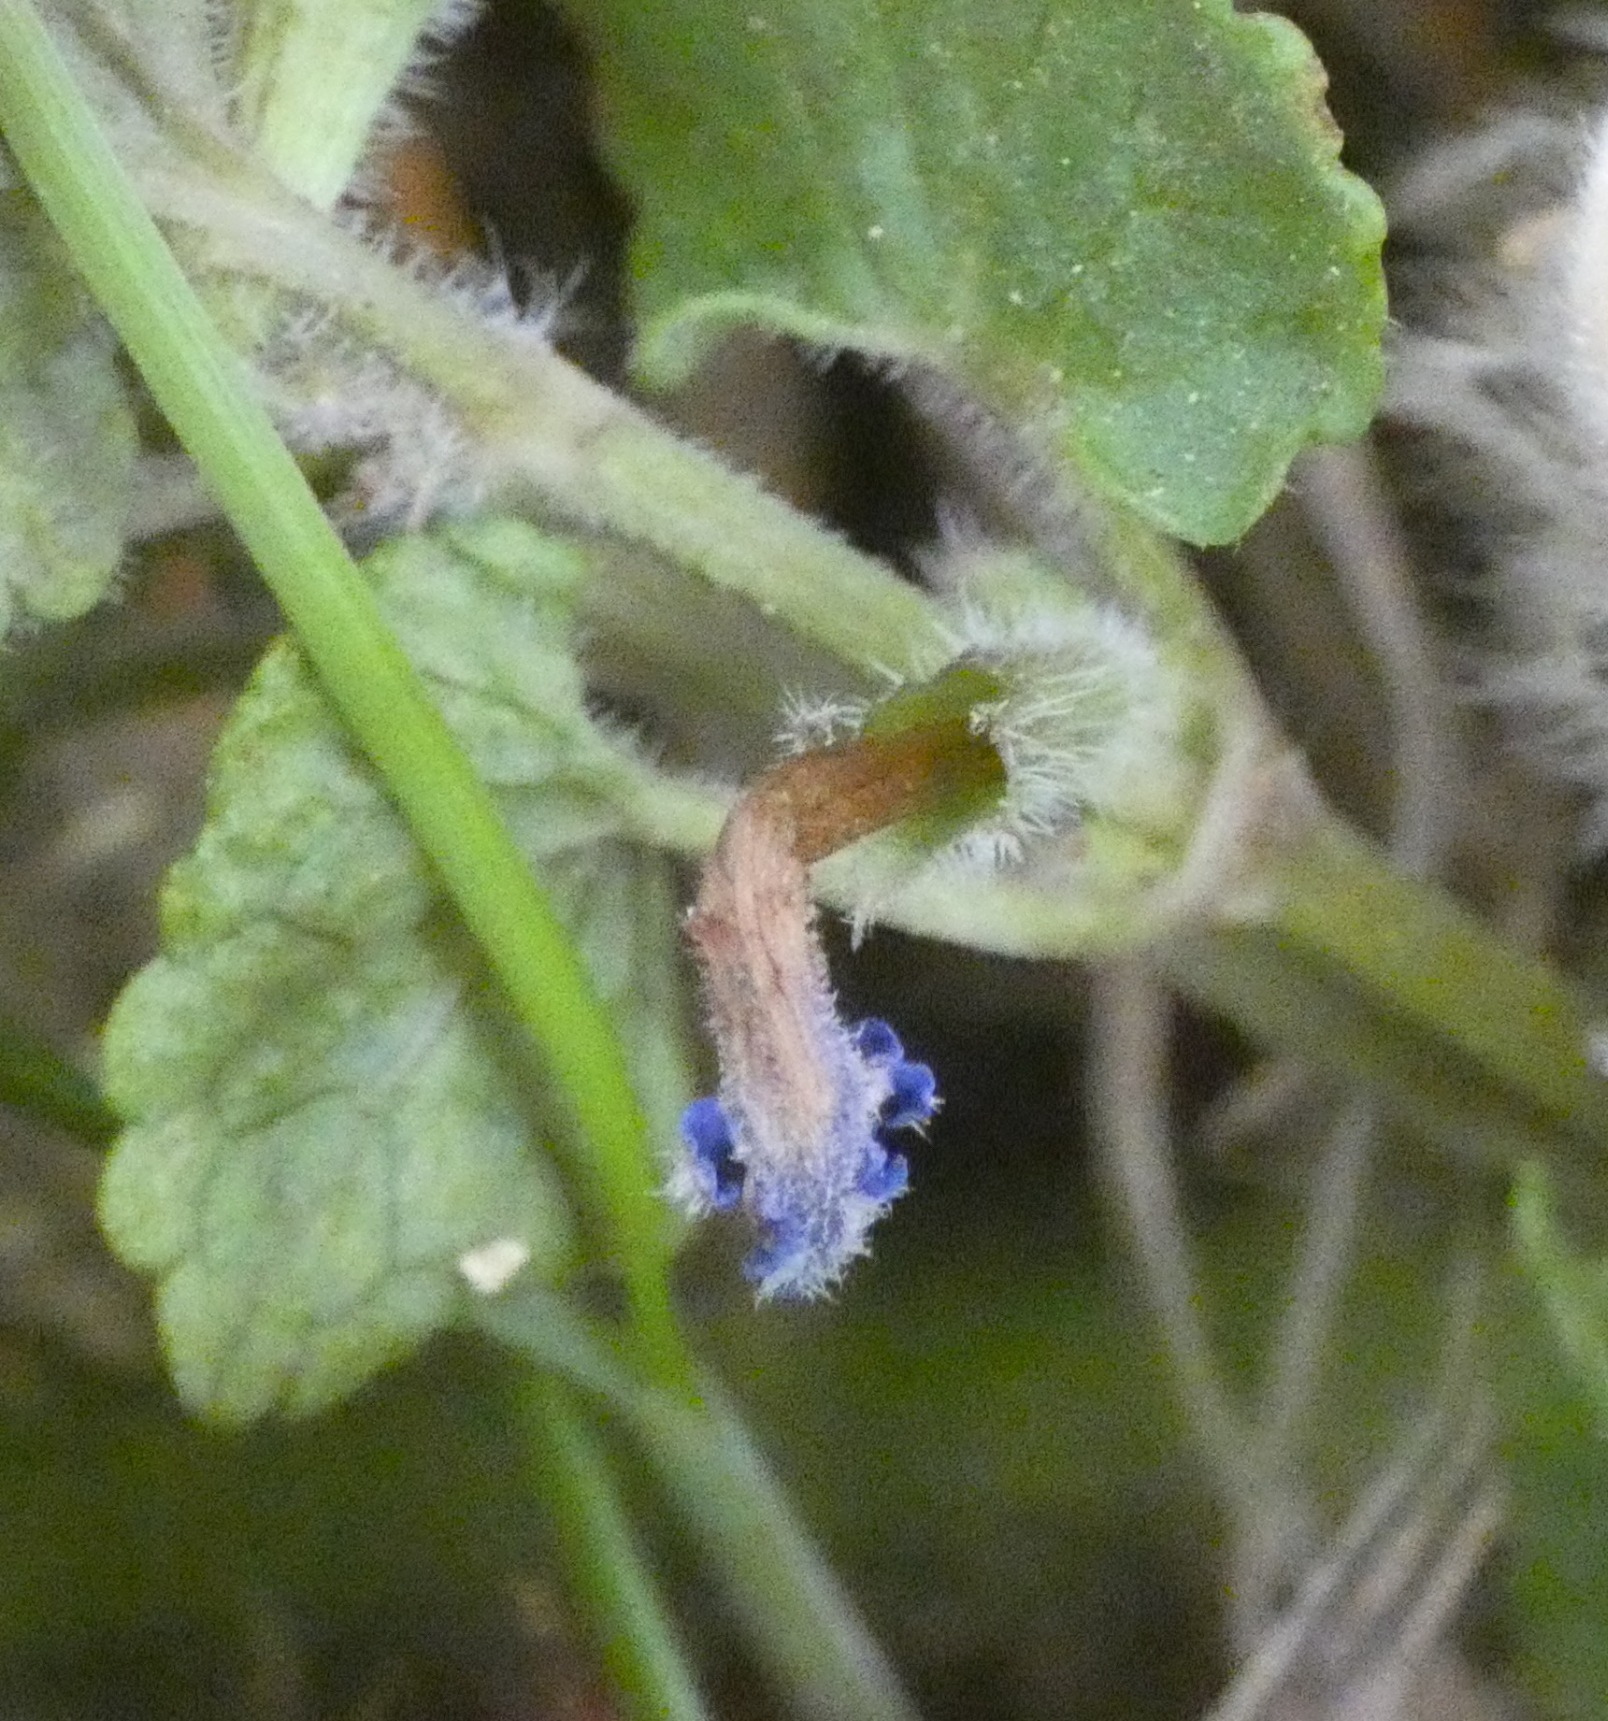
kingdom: Plantae
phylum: Tracheophyta
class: Magnoliopsida
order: Lamiales
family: Lamiaceae
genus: Glechoma
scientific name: Glechoma hederacea
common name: Korsknap
